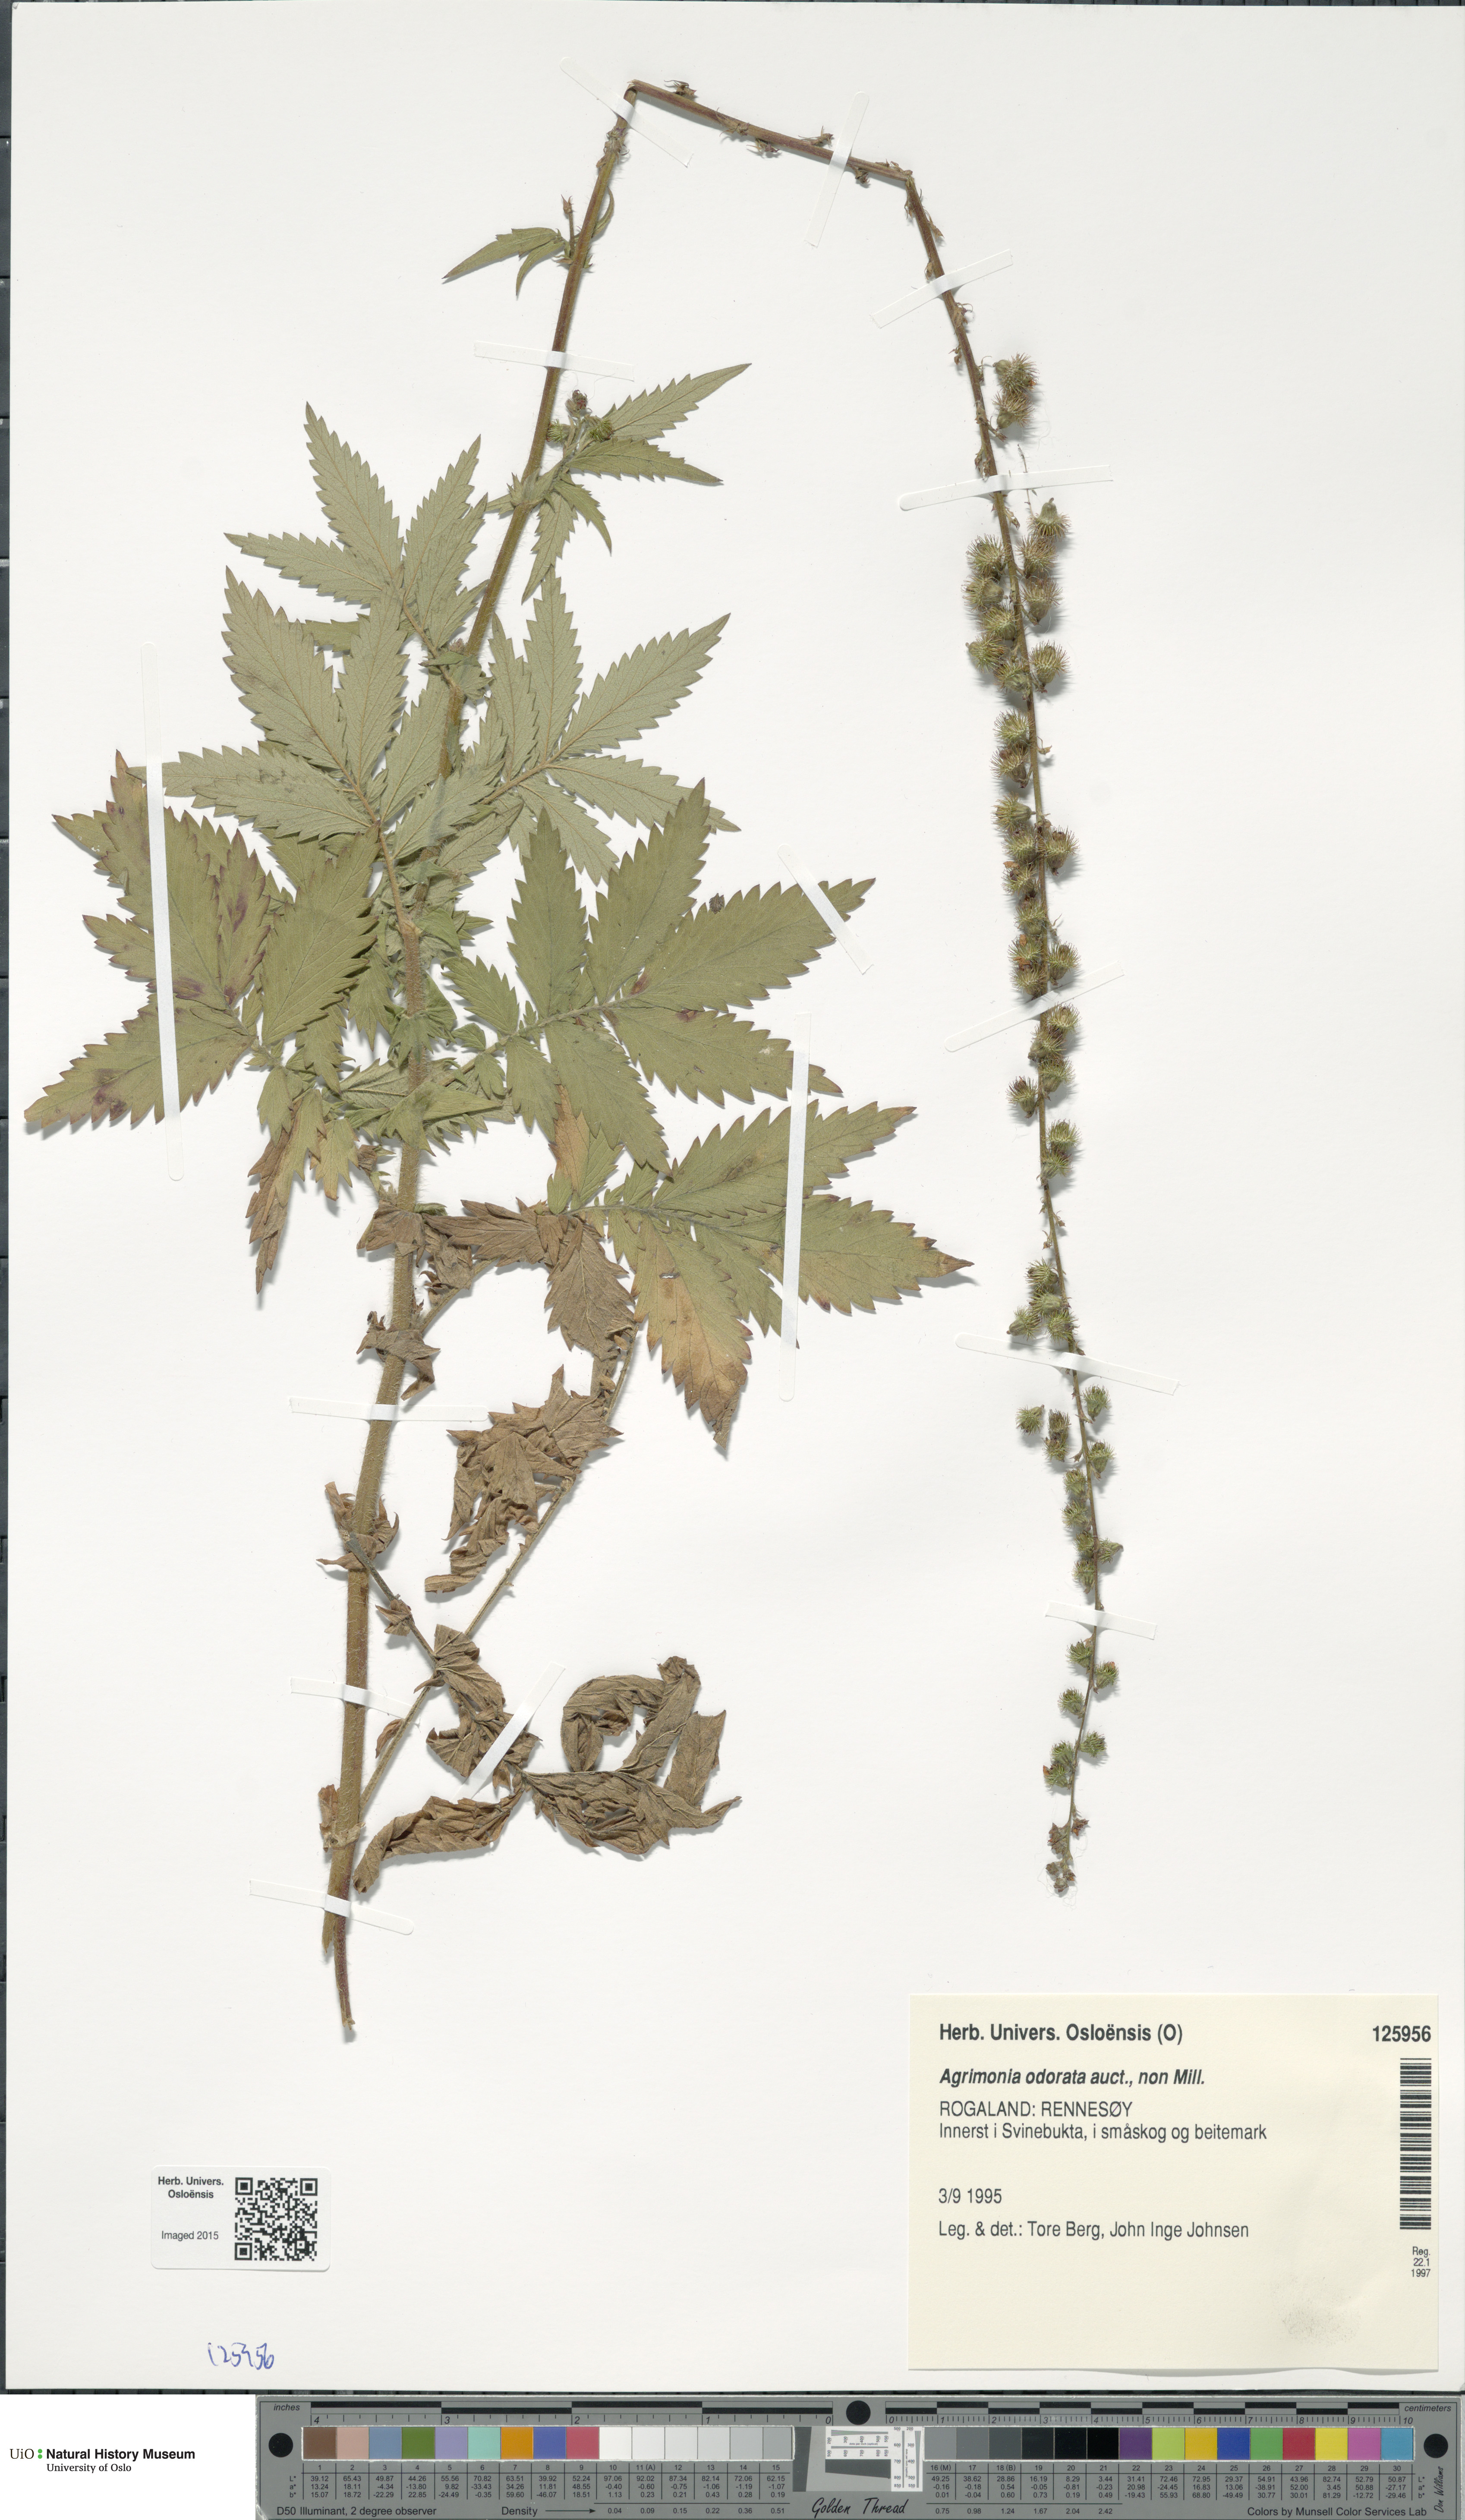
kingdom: Plantae
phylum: Tracheophyta
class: Magnoliopsida
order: Rosales
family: Rosaceae
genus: Agrimonia
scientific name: Agrimonia procera
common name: Fragrant agrimony
